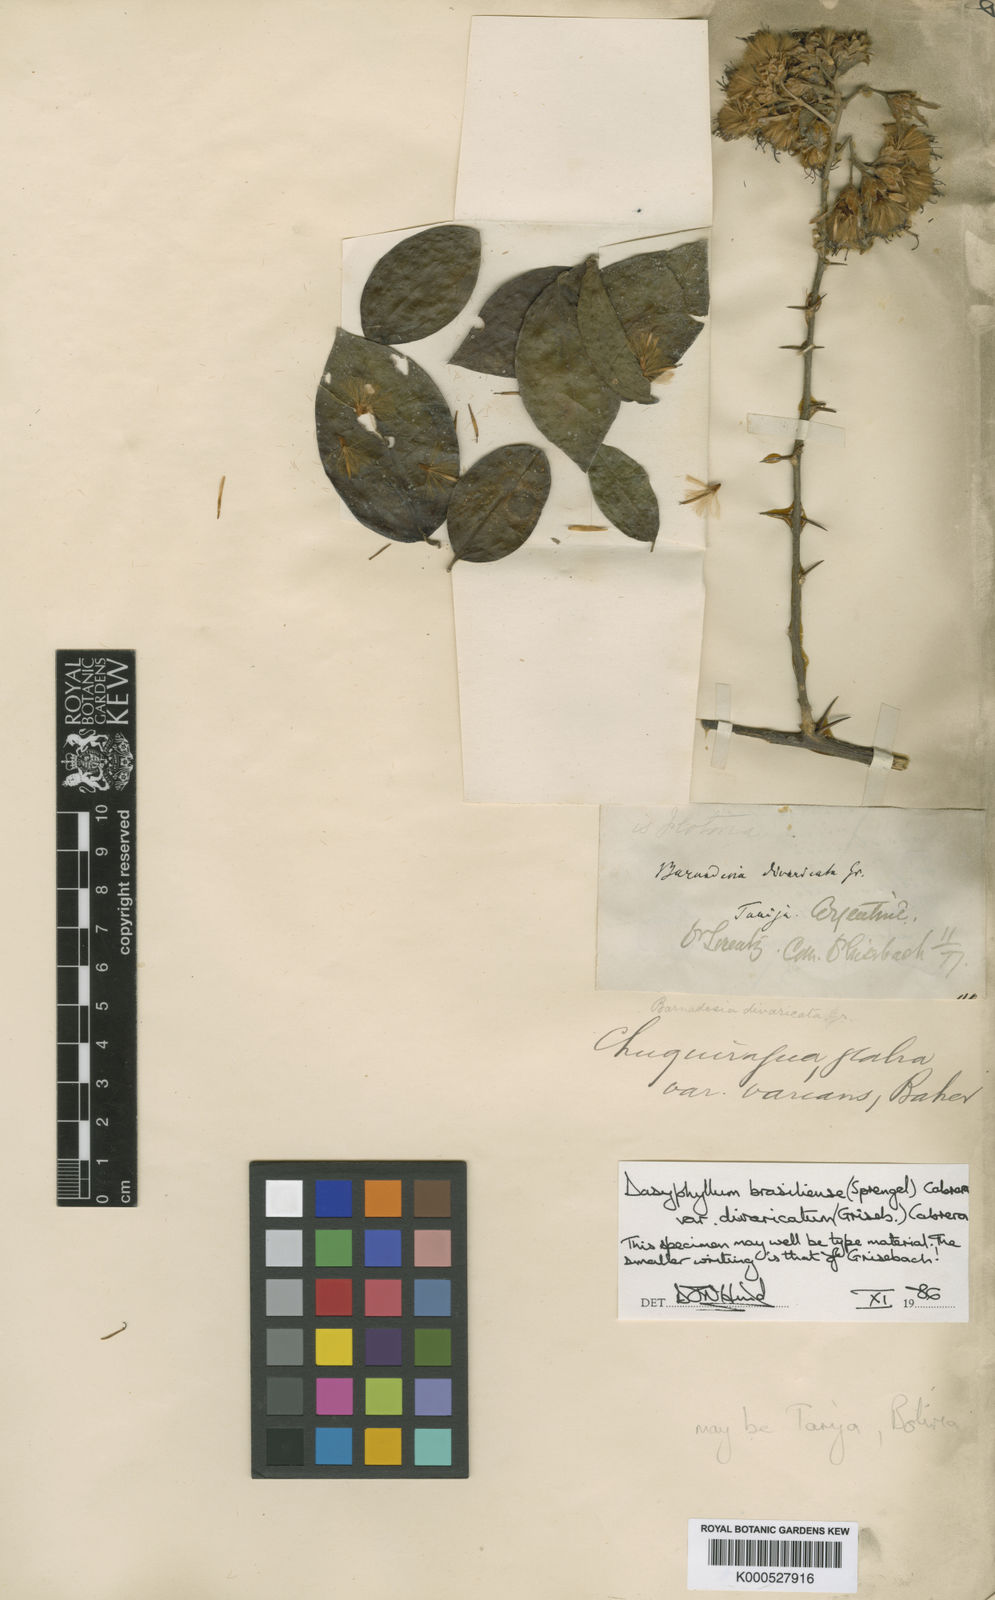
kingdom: Plantae
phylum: Tracheophyta
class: Magnoliopsida
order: Asterales
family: Asteraceae
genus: Dasyphyllum
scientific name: Dasyphyllum brasiliense
